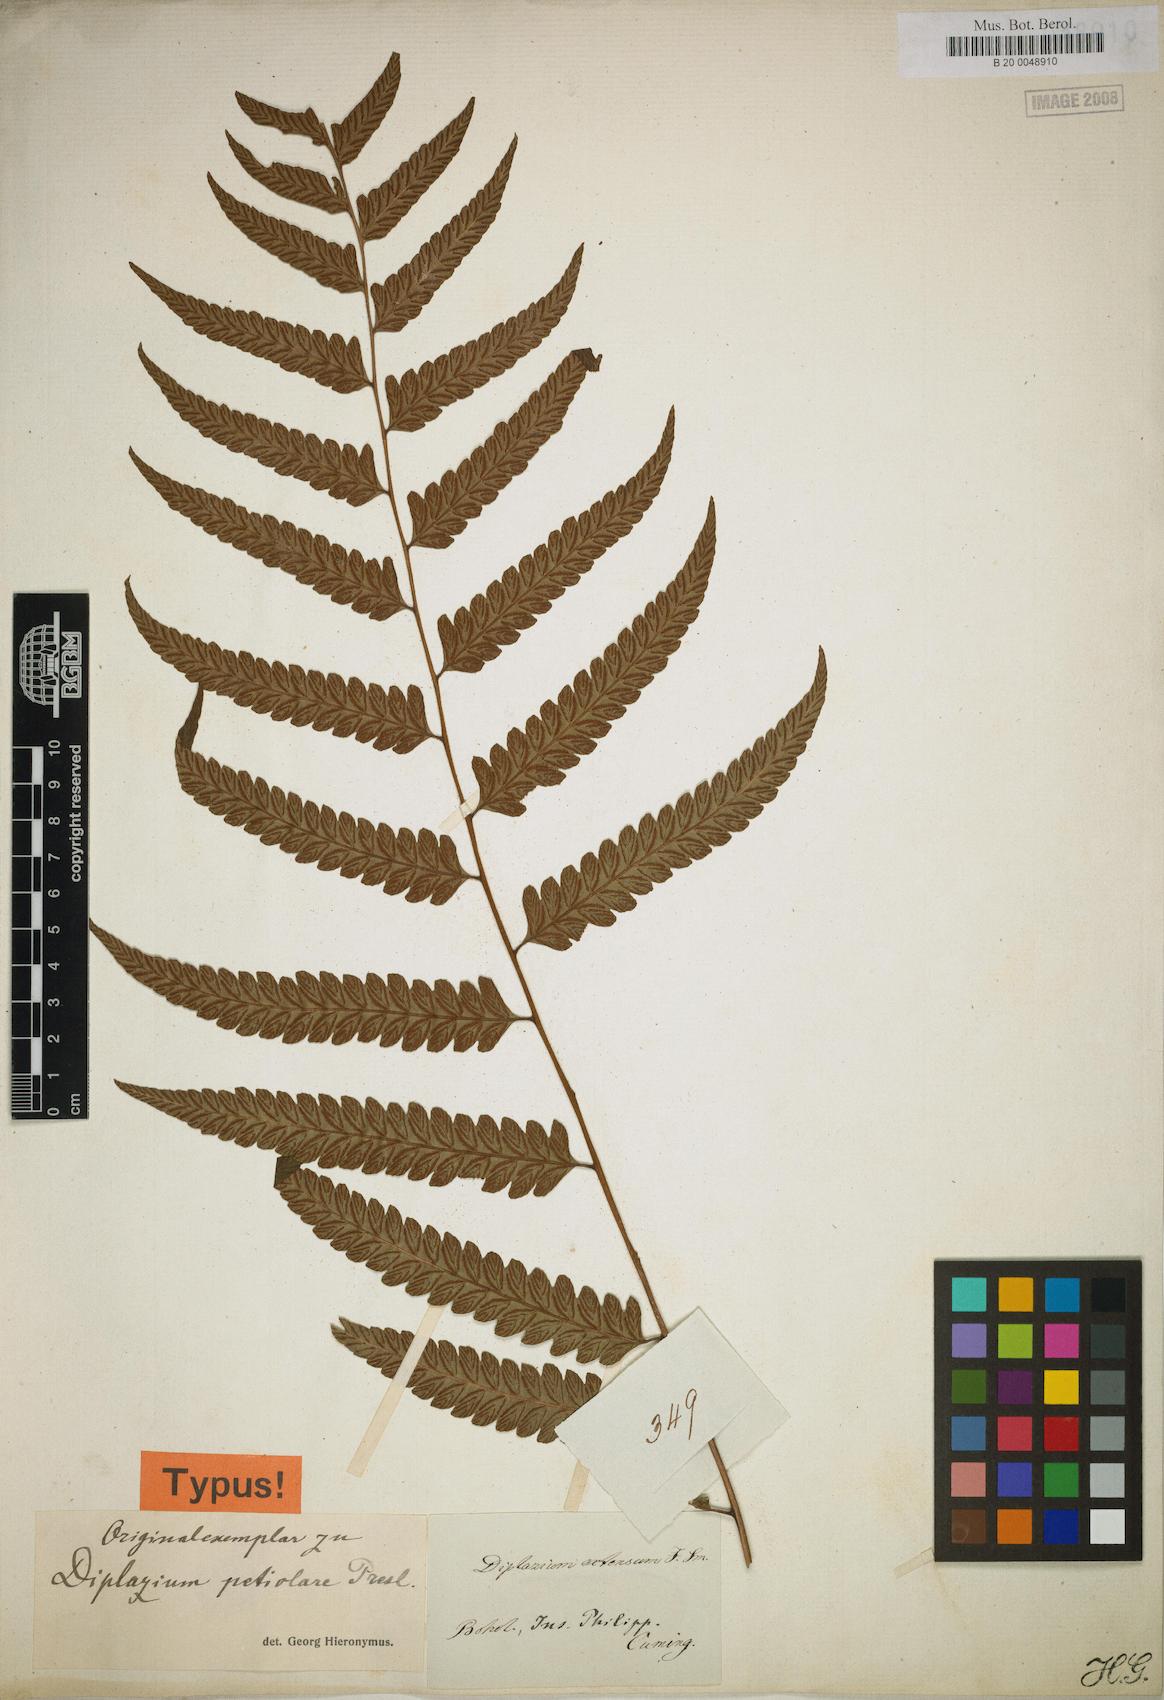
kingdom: Plantae
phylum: Tracheophyta
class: Polypodiopsida
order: Polypodiales
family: Athyriaceae
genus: Diplazium
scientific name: Diplazium petiolare
